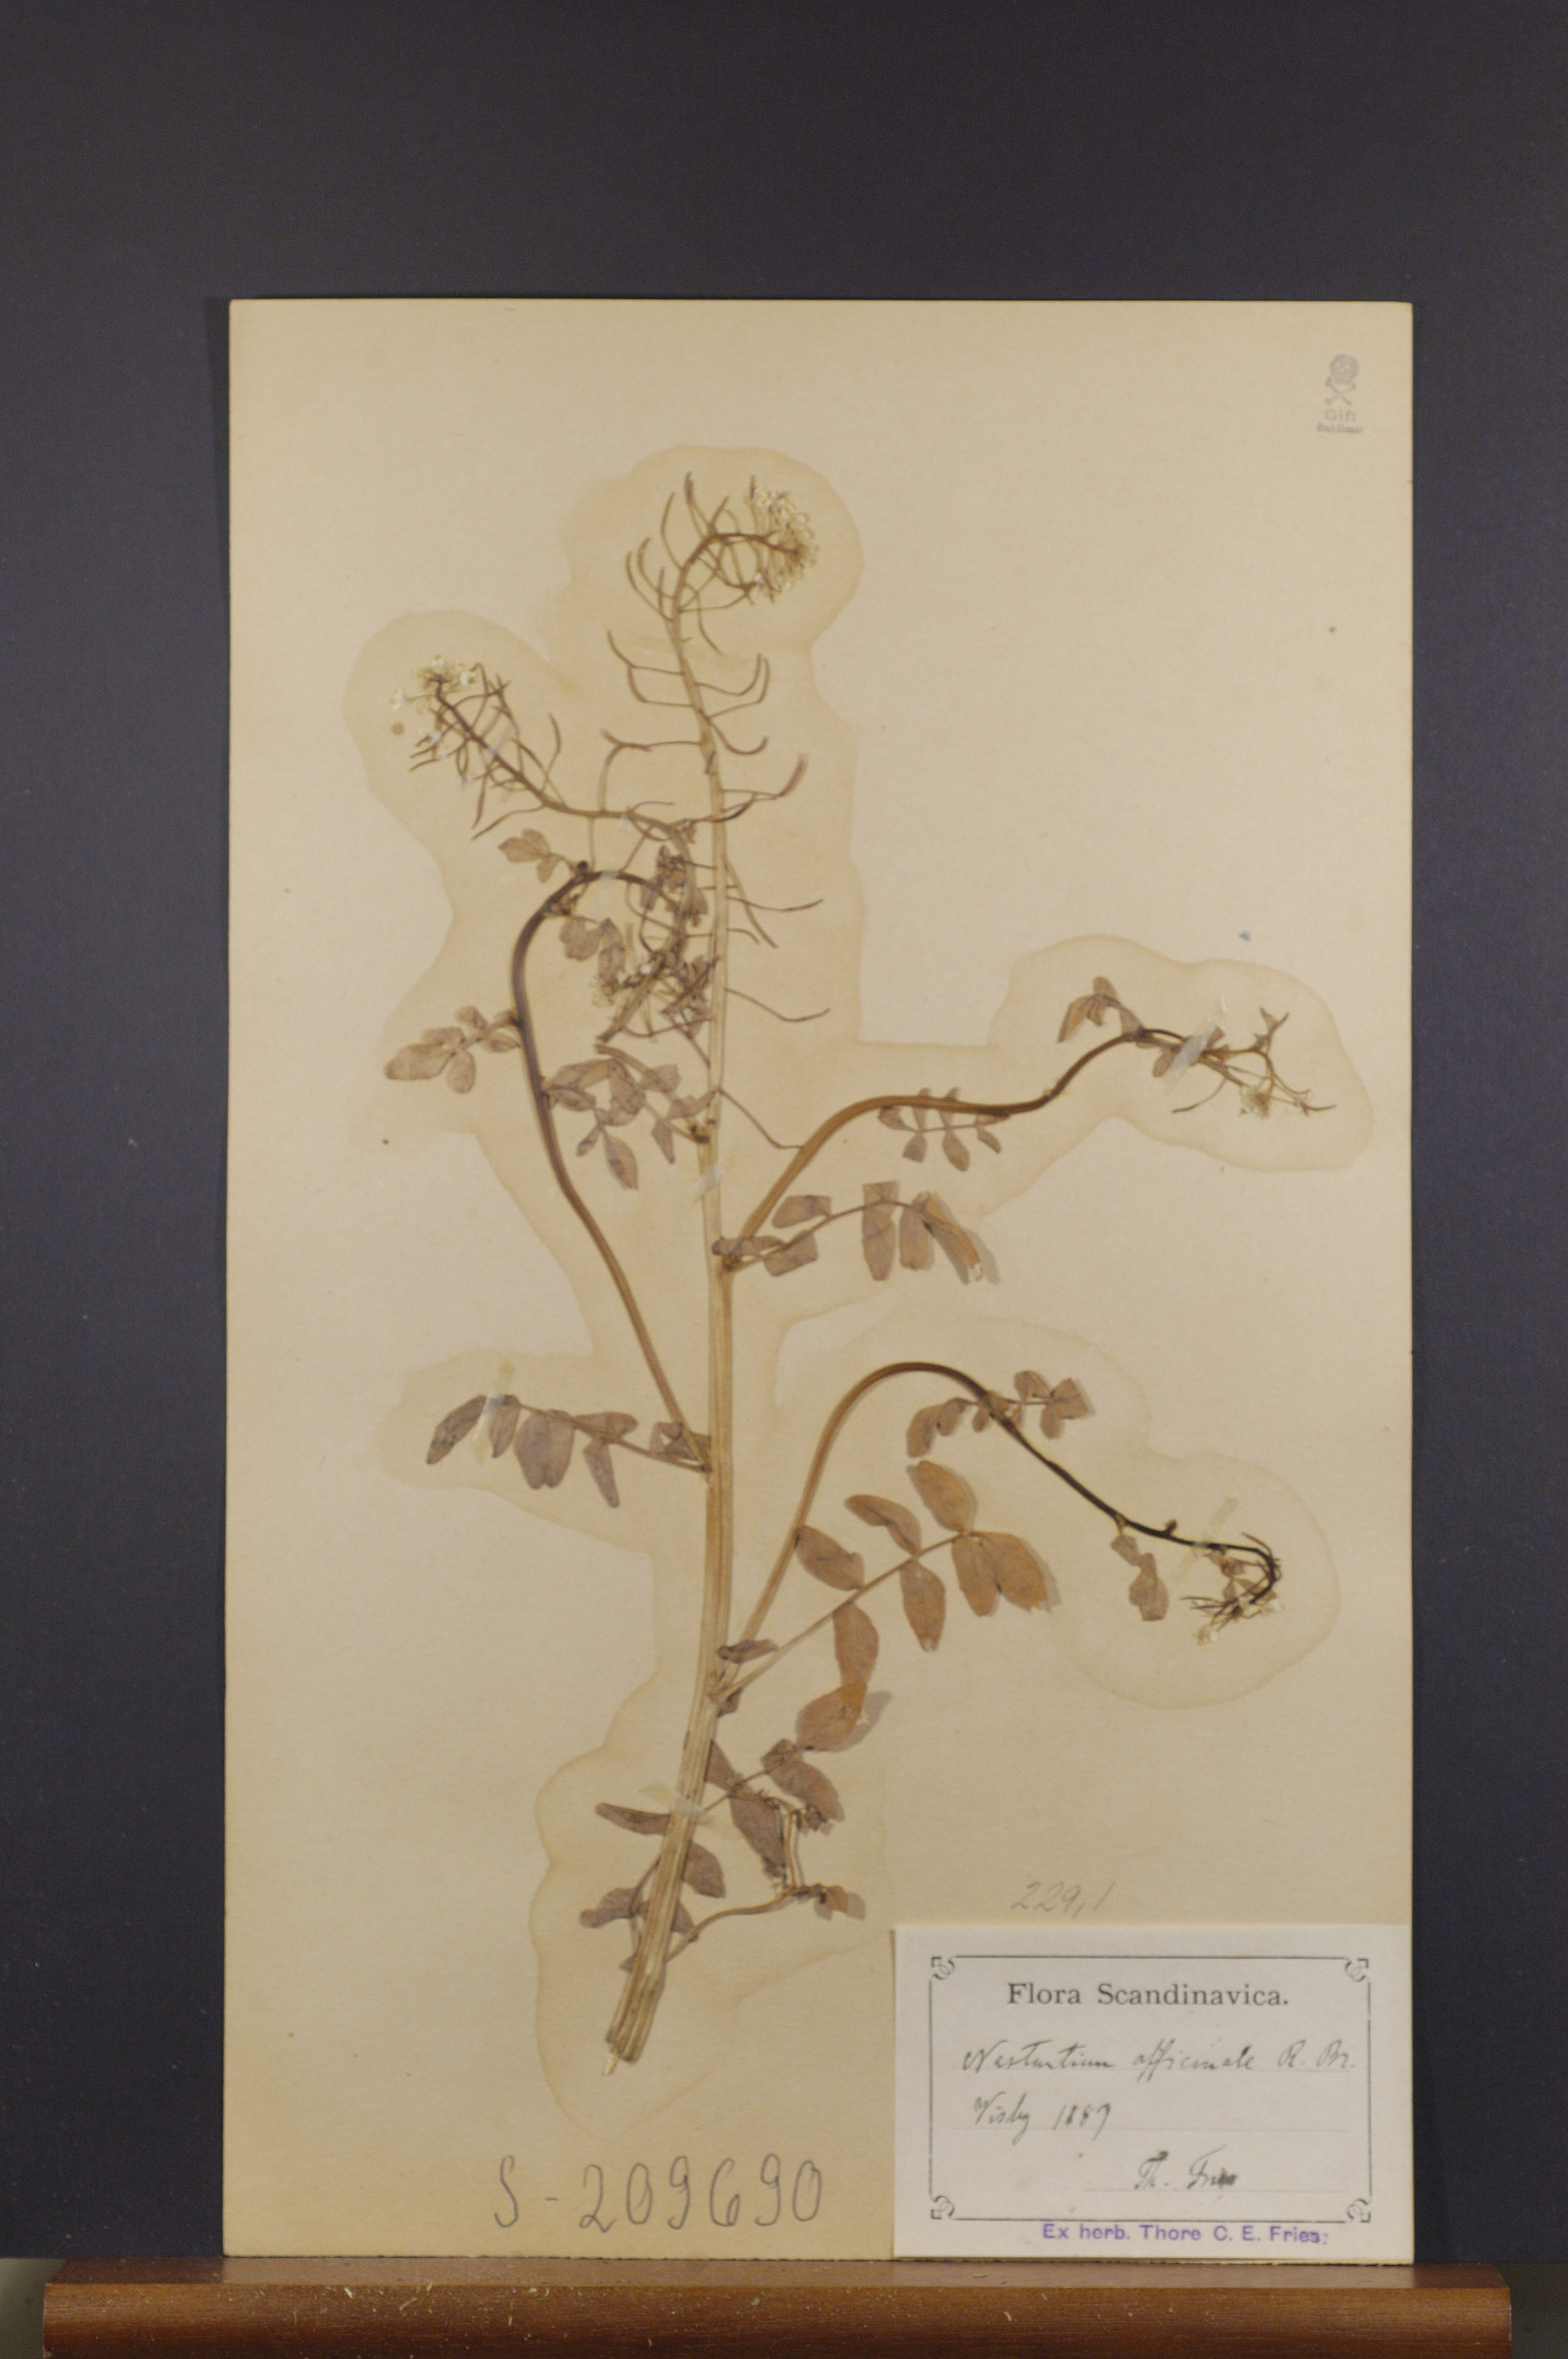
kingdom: Plantae
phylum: Tracheophyta
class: Magnoliopsida
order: Brassicales
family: Brassicaceae
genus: Nasturtium
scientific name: Nasturtium officinale
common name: Watercress
